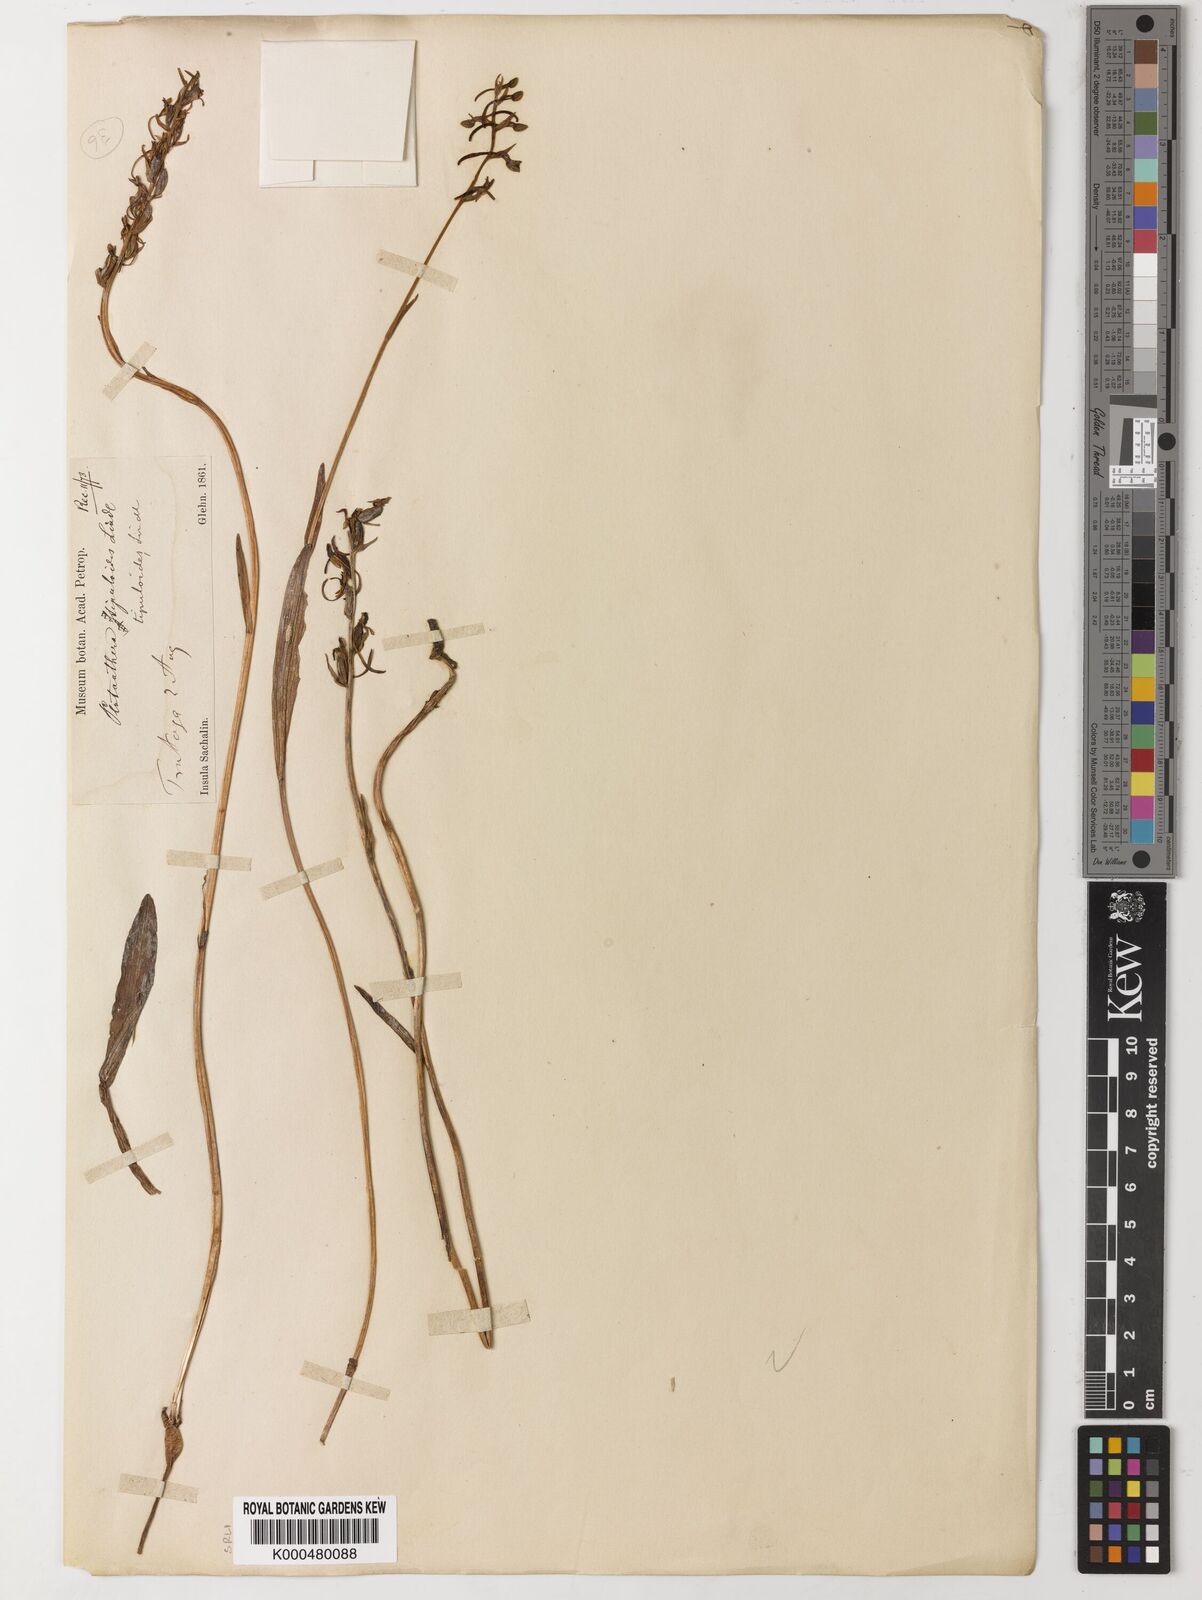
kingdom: Plantae
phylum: Tracheophyta
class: Liliopsida
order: Asparagales
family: Orchidaceae
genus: Platanthera
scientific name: Platanthera tipuloides
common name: Aleutian bog orchid
